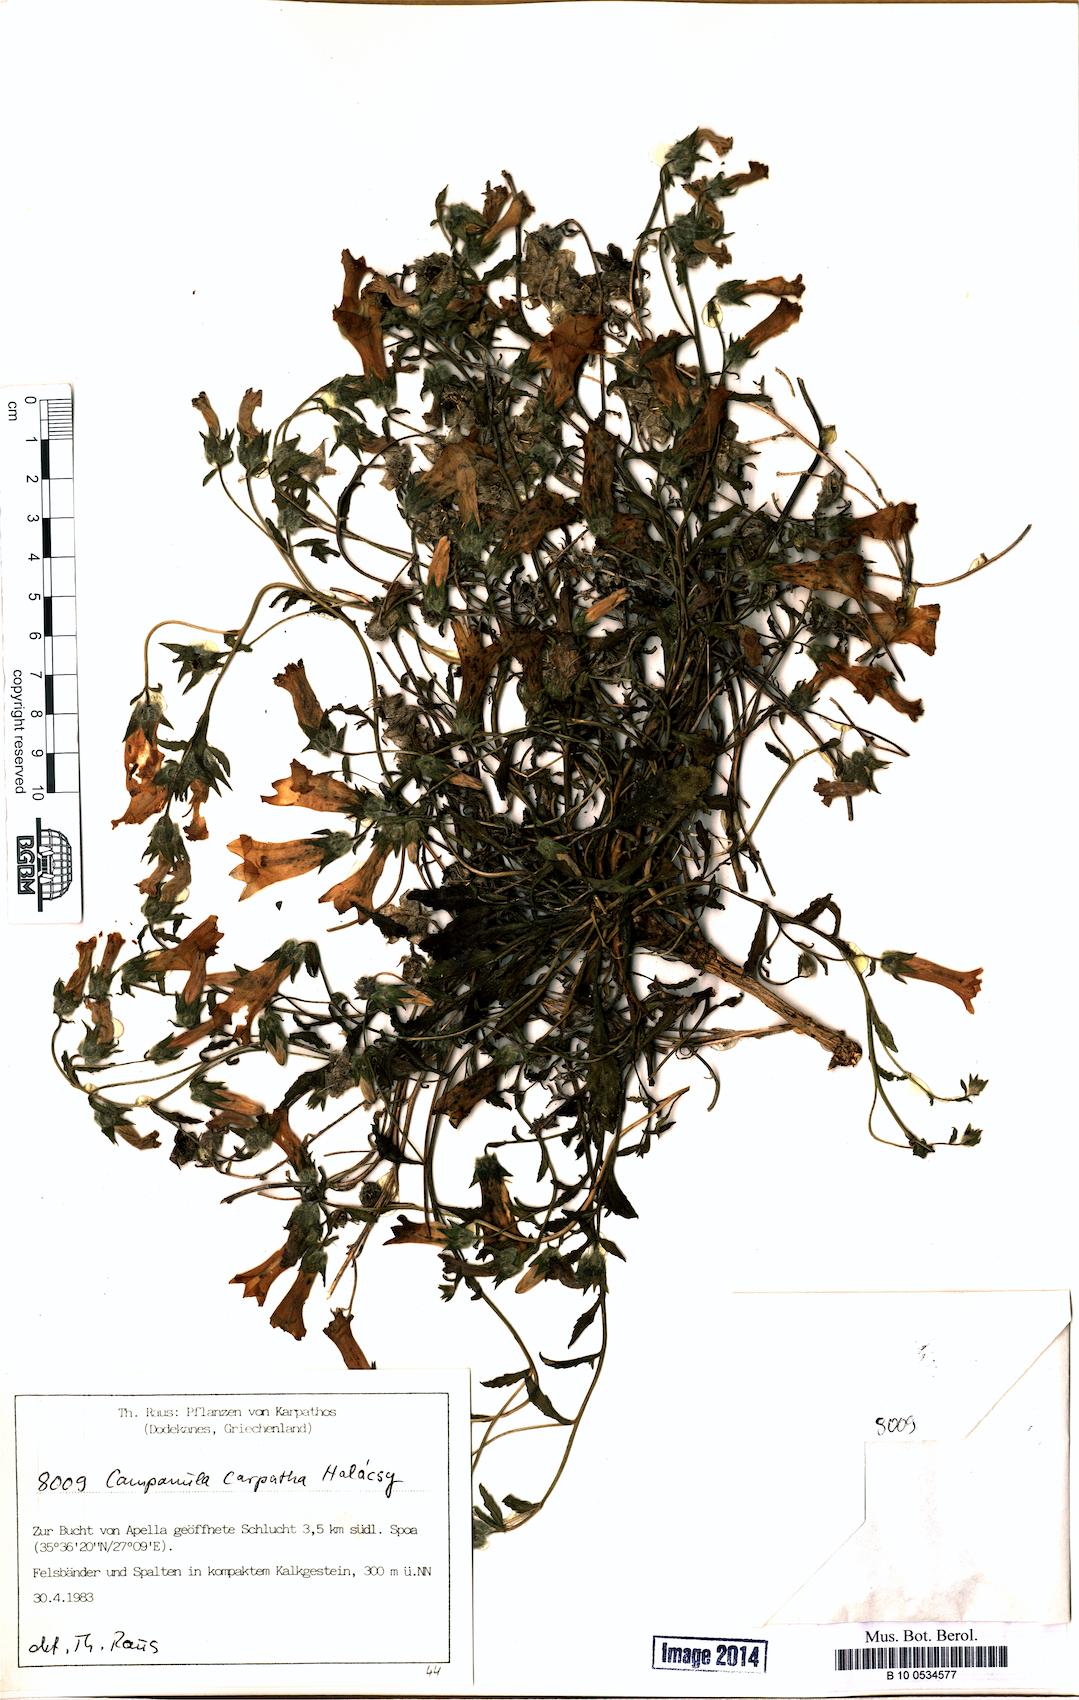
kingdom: Plantae
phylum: Tracheophyta
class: Magnoliopsida
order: Asterales
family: Campanulaceae
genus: Campanula
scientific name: Campanula carpatha
